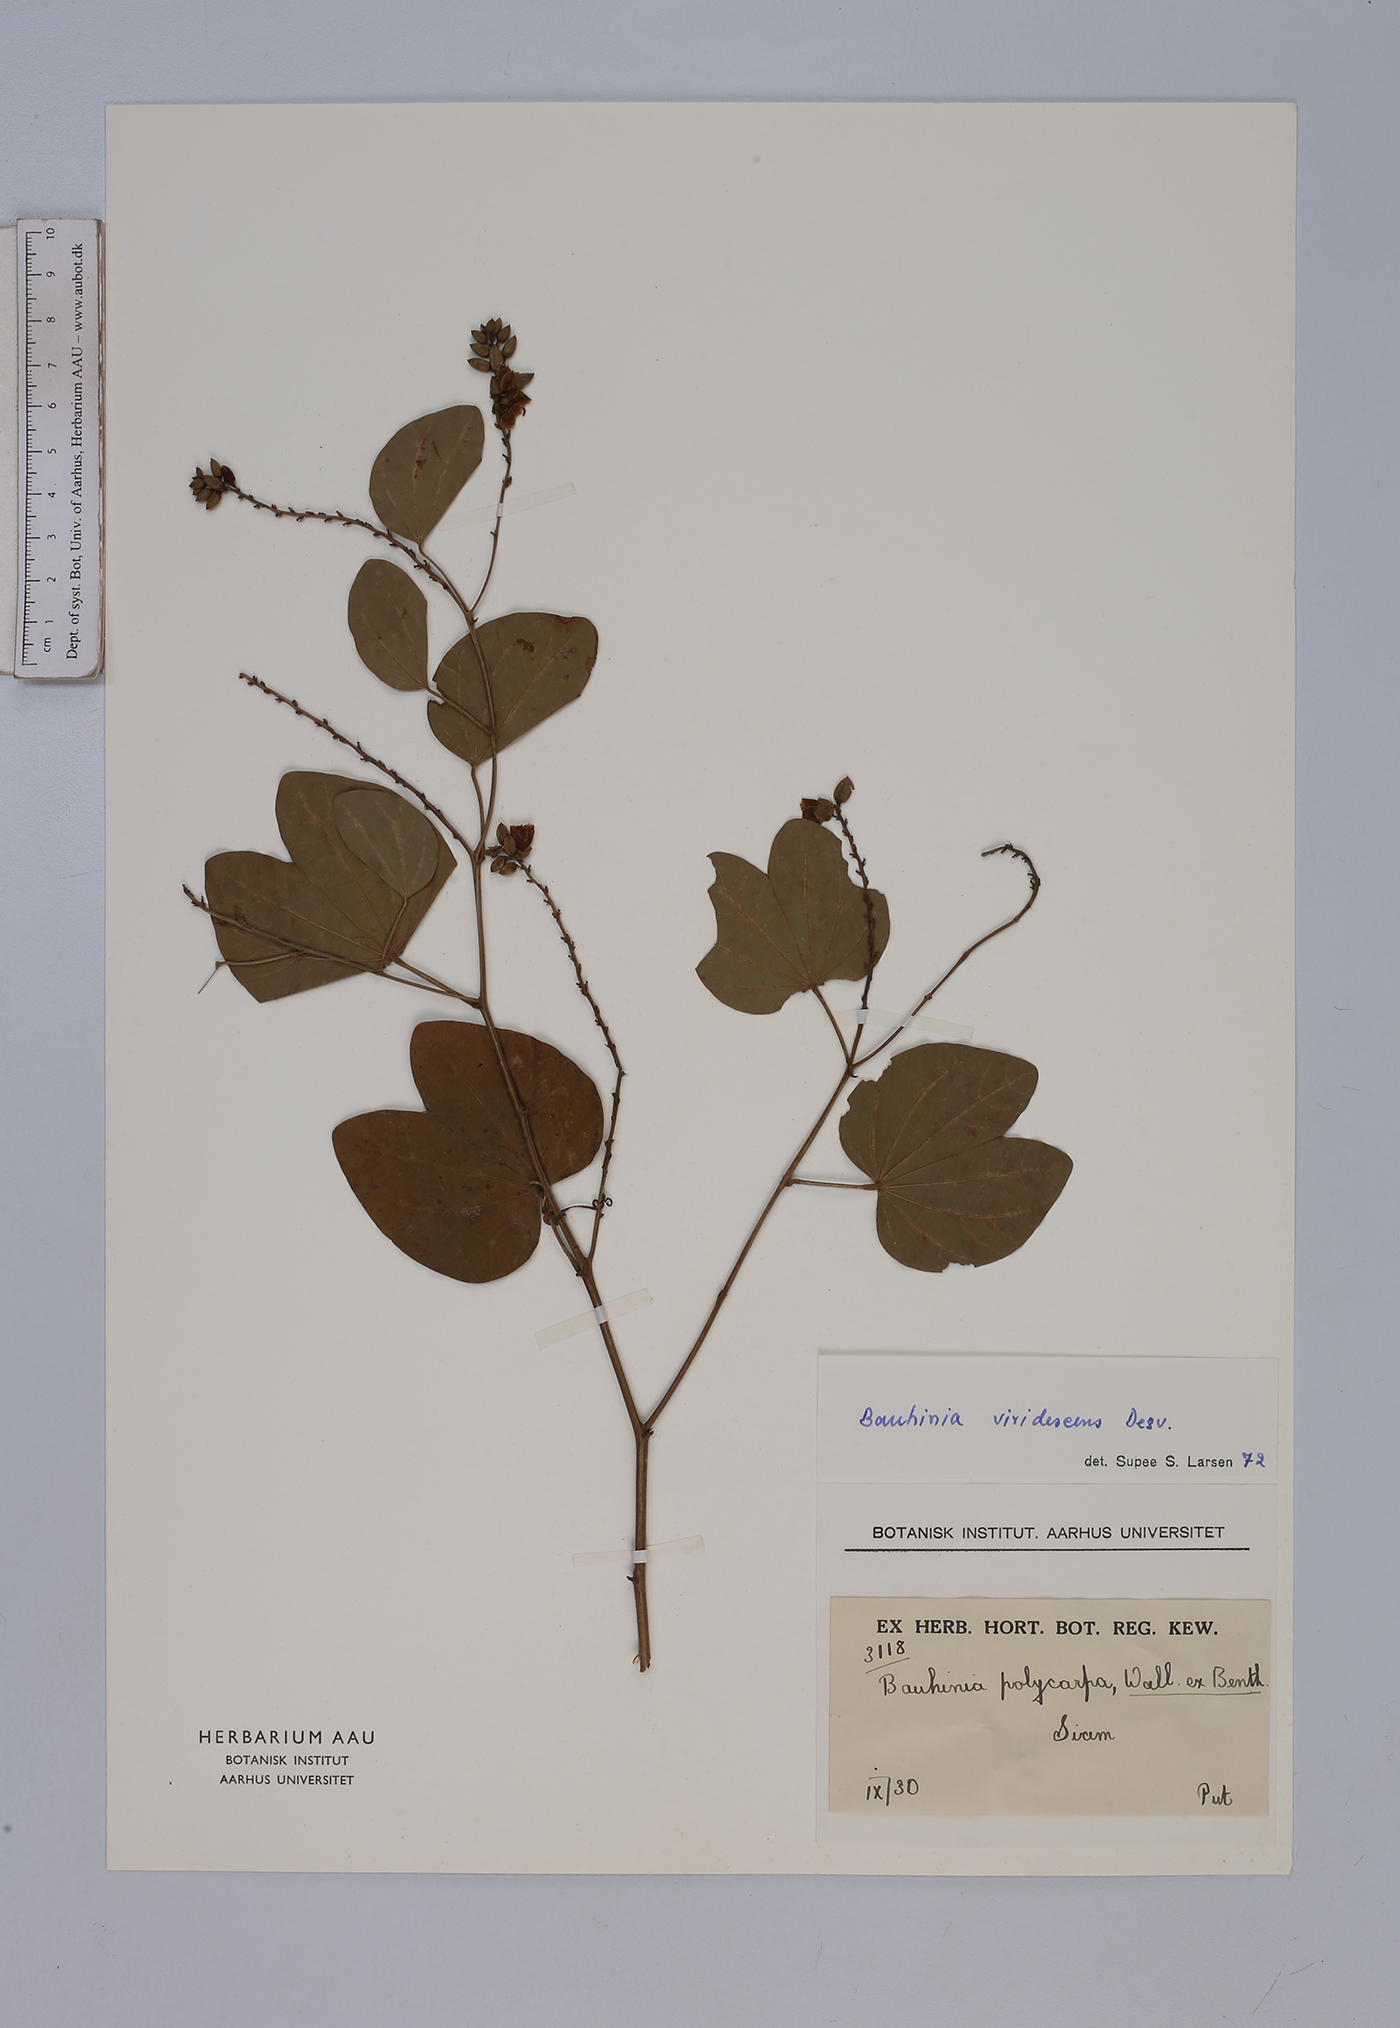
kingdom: Plantae
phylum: Tracheophyta
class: Magnoliopsida
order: Fabales
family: Fabaceae
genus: Bauhinia
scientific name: Bauhinia viridescens
